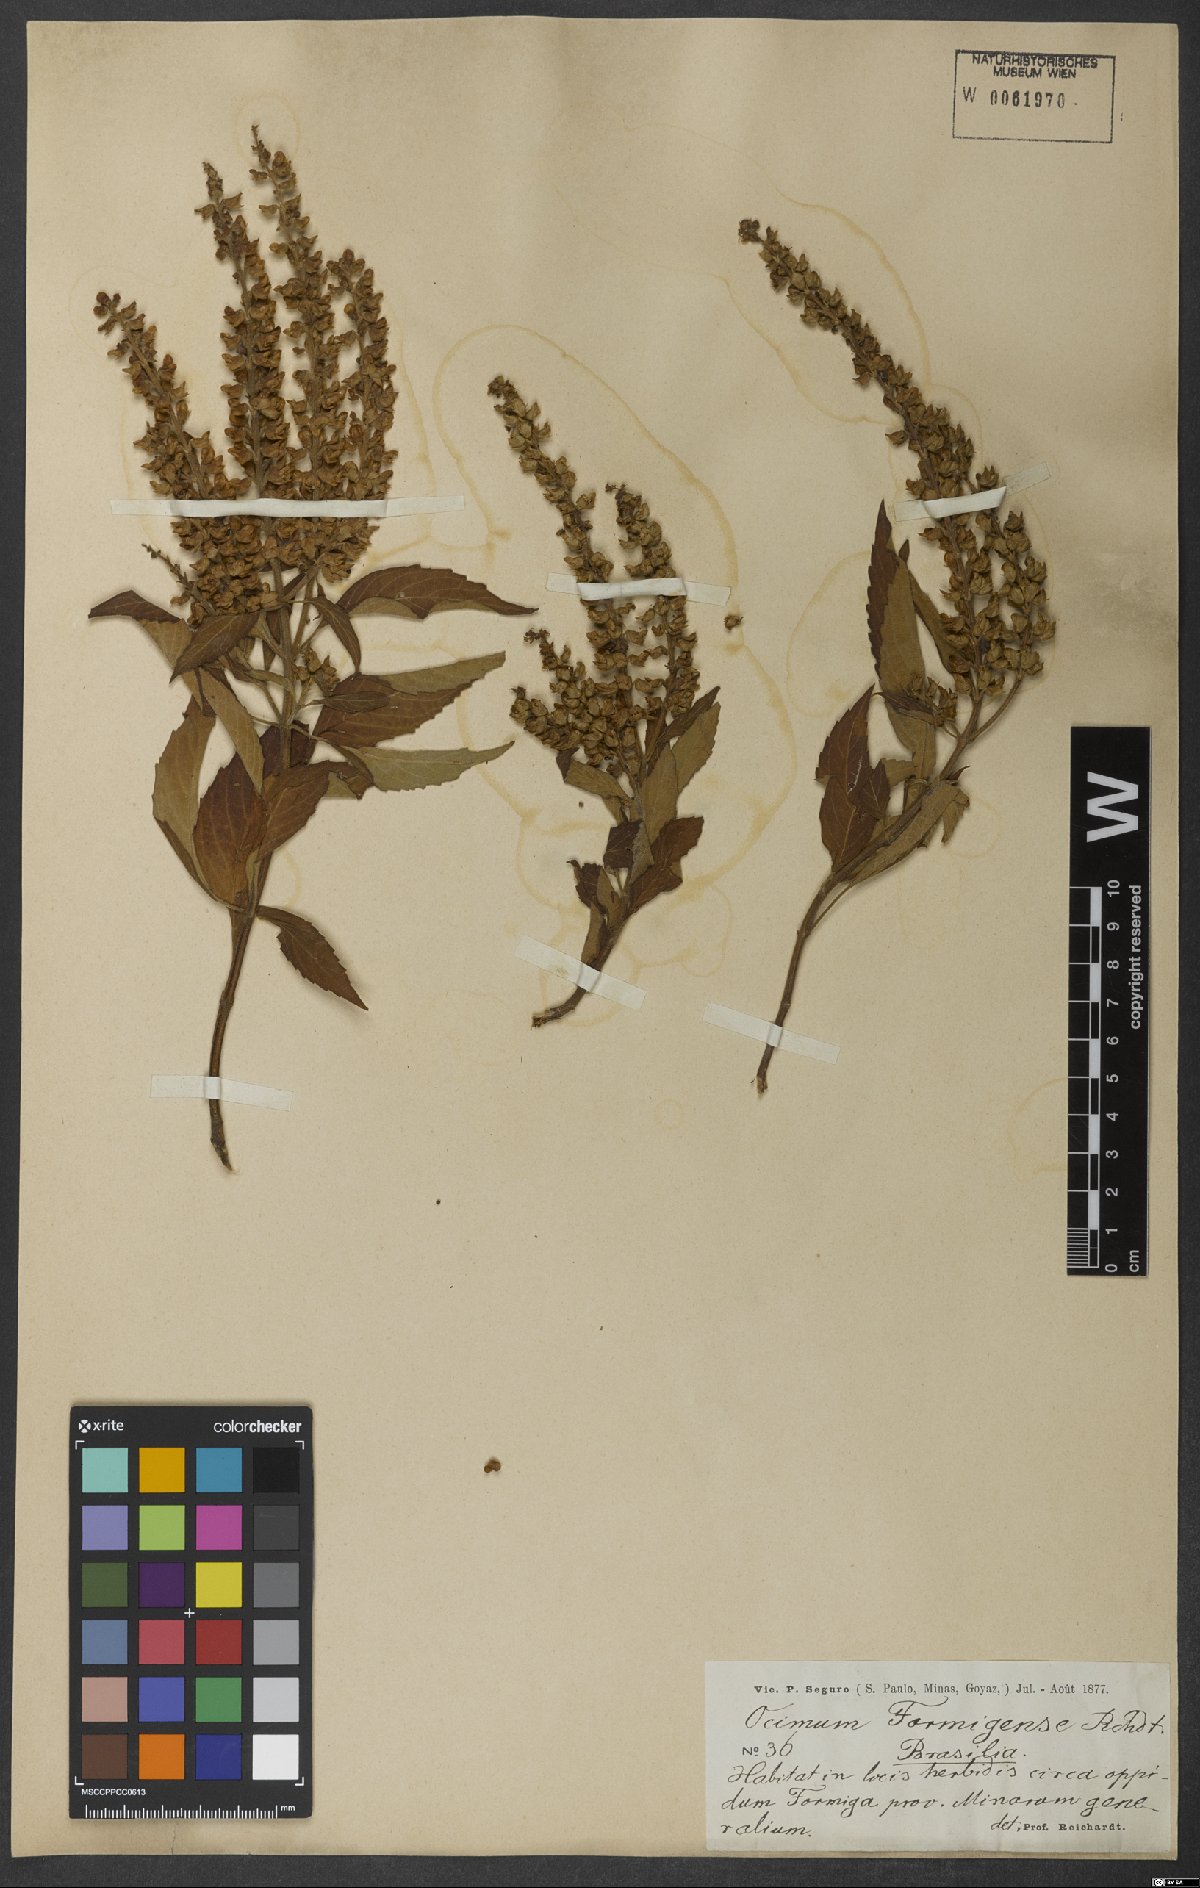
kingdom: Plantae
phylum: Tracheophyta
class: Magnoliopsida
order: Lamiales
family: Lamiaceae
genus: Ocimum
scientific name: Ocimum formigense
